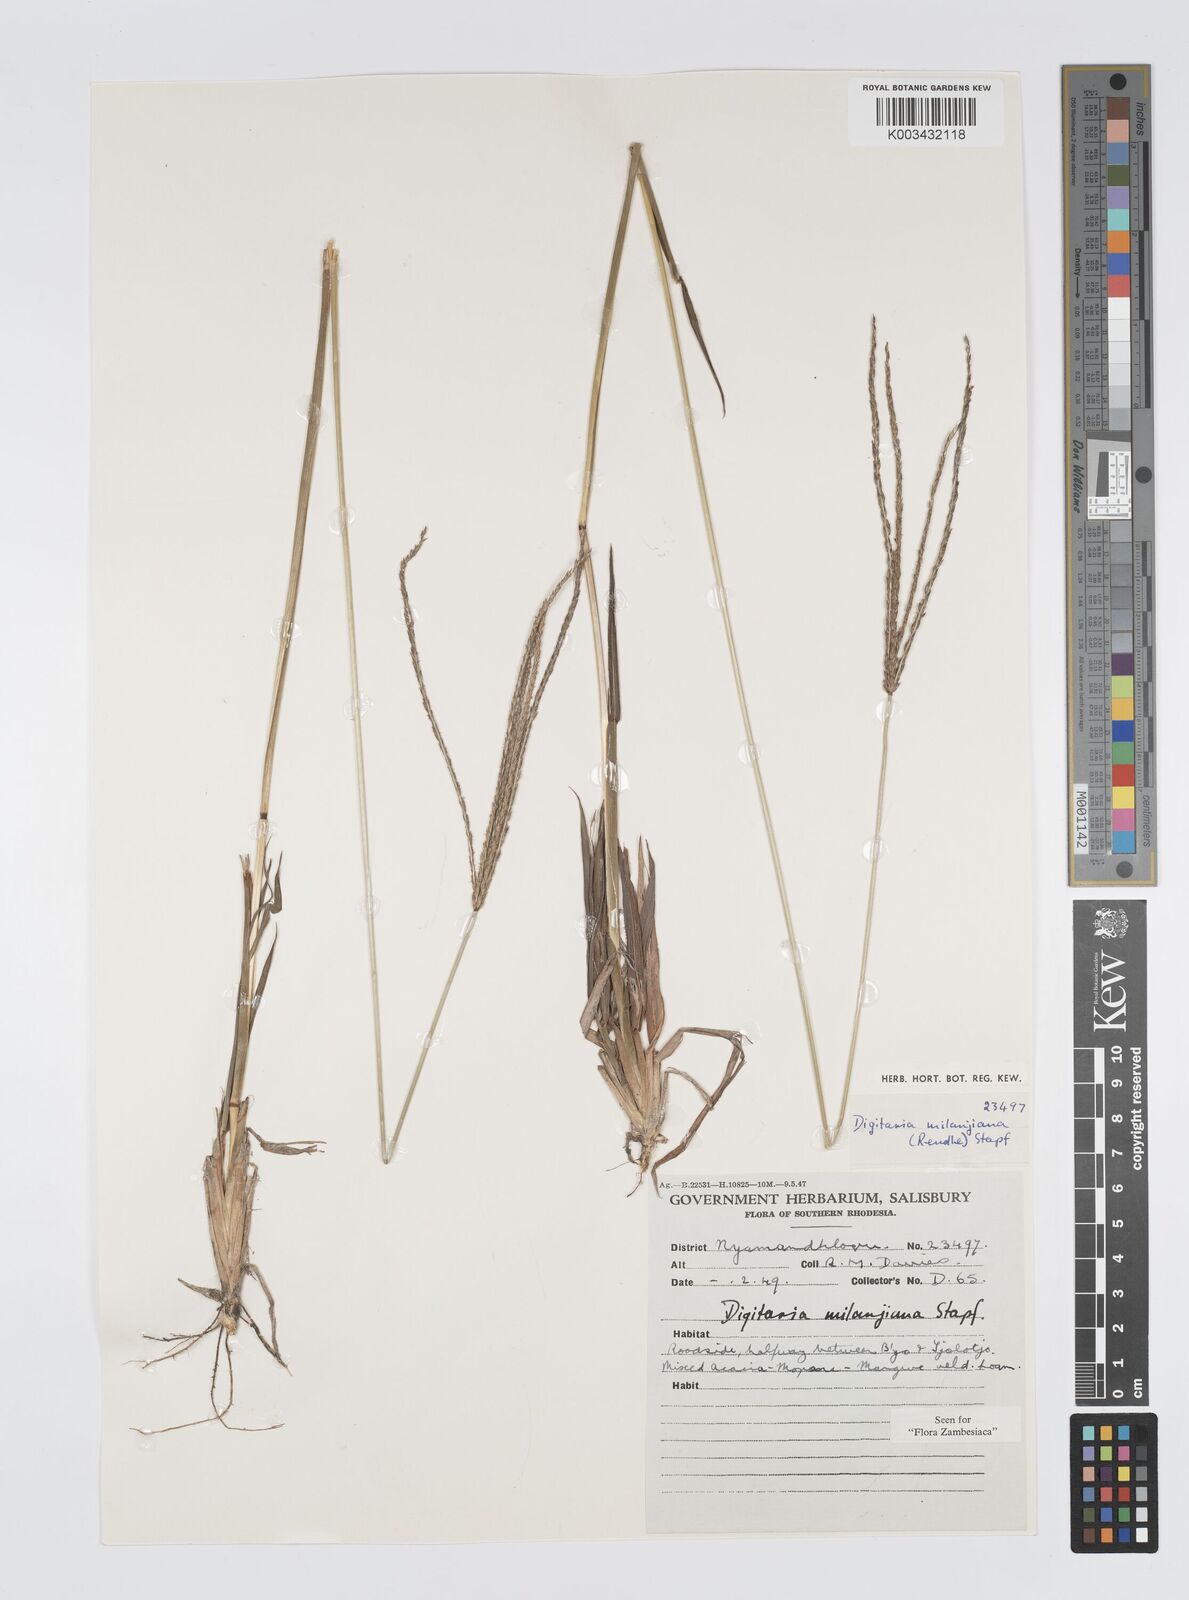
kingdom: Plantae
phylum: Tracheophyta
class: Liliopsida
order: Poales
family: Poaceae
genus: Digitaria
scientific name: Digitaria milanjiana
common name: Madagascar crabgrass
